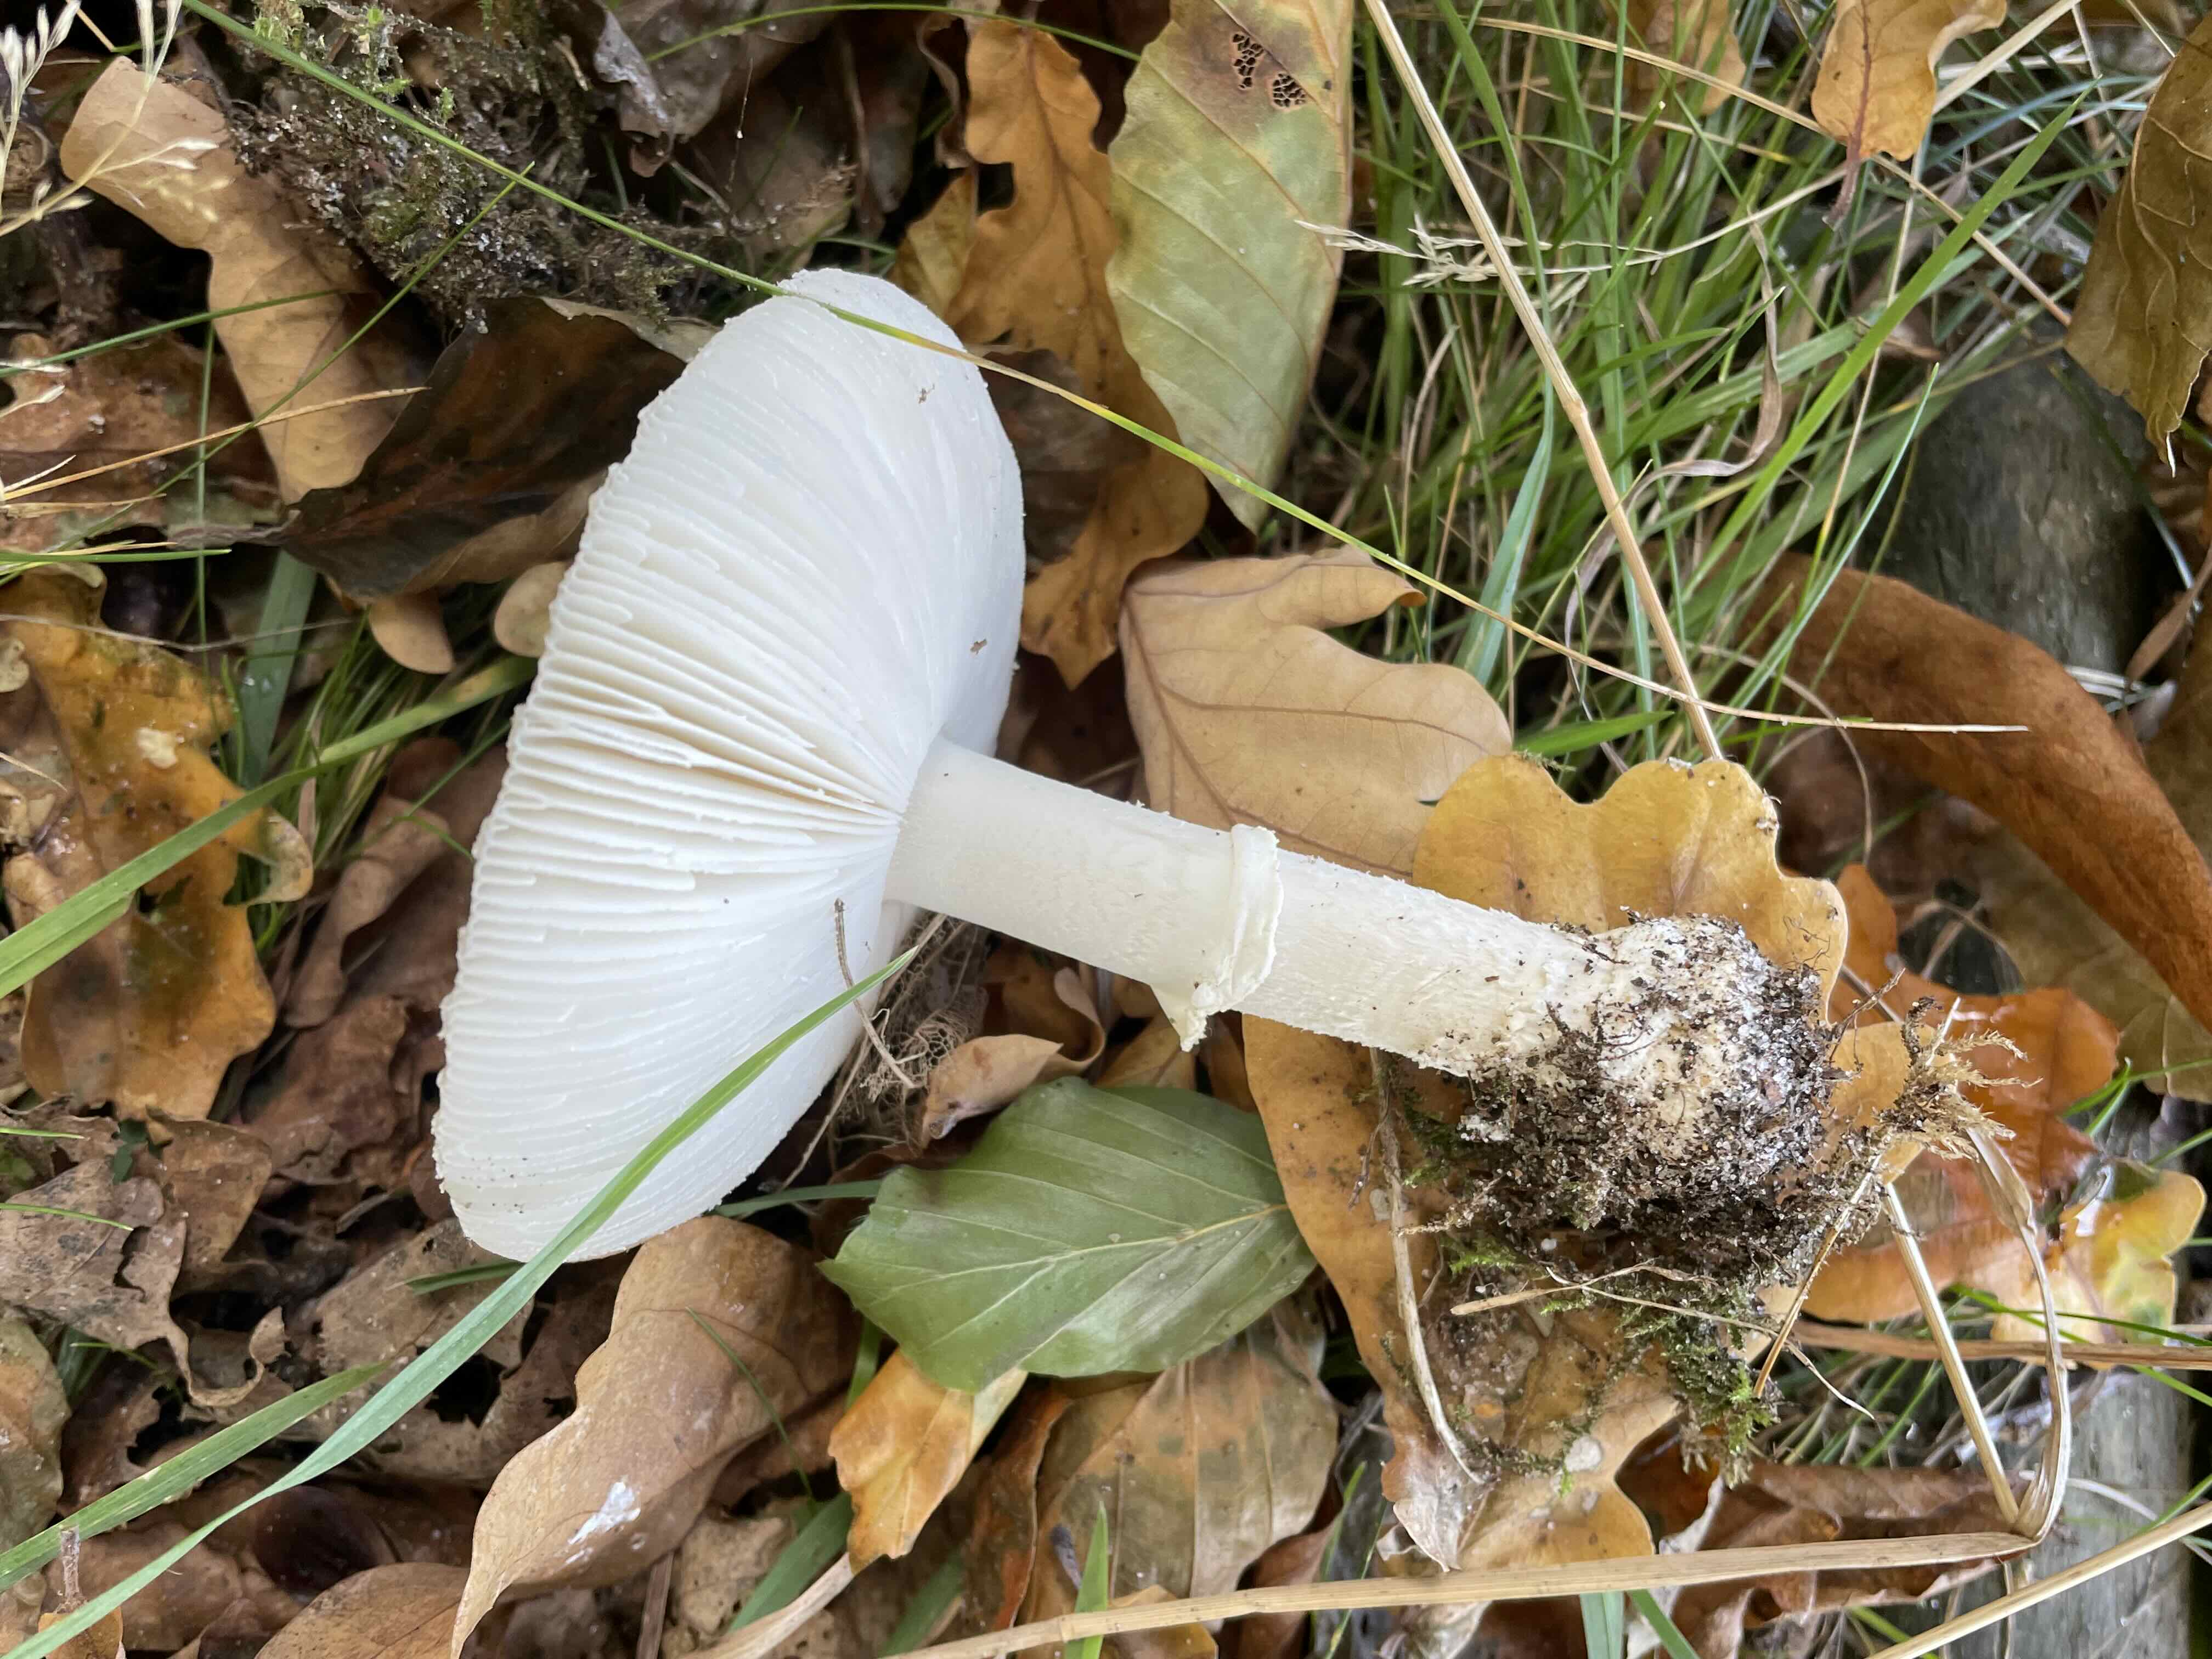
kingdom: Fungi
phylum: Basidiomycota
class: Agaricomycetes
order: Agaricales
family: Amanitaceae
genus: Amanita
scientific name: Amanita pantherina
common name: panter-fluesvamp
